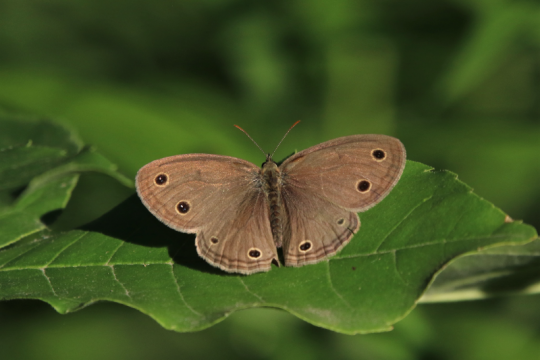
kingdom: Animalia
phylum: Arthropoda
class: Insecta
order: Lepidoptera
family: Nymphalidae
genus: Euptychia
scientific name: Euptychia cymela
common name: Little Wood Satyr
